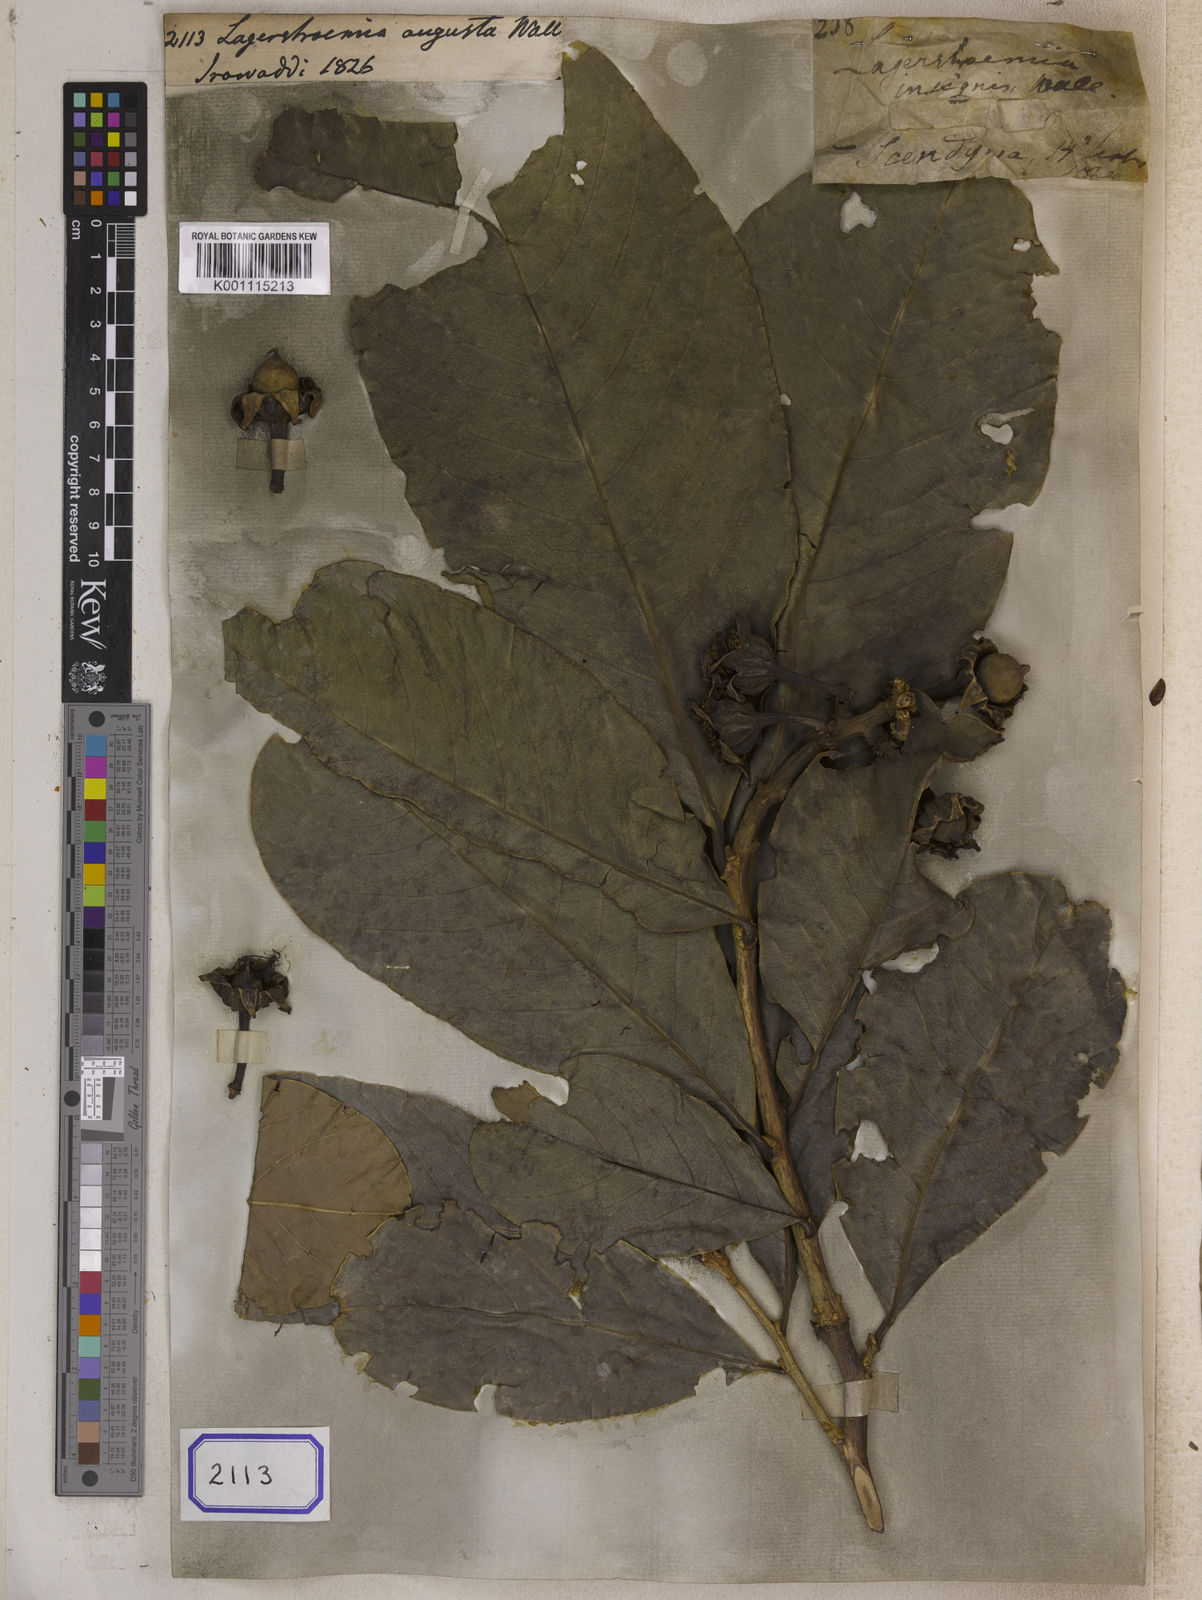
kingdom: Plantae
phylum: Tracheophyta
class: Magnoliopsida
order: Myrtales
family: Lythraceae
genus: Lagerstroemia
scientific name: Lagerstroemia speciosa
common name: Queen's crape-myrtle
